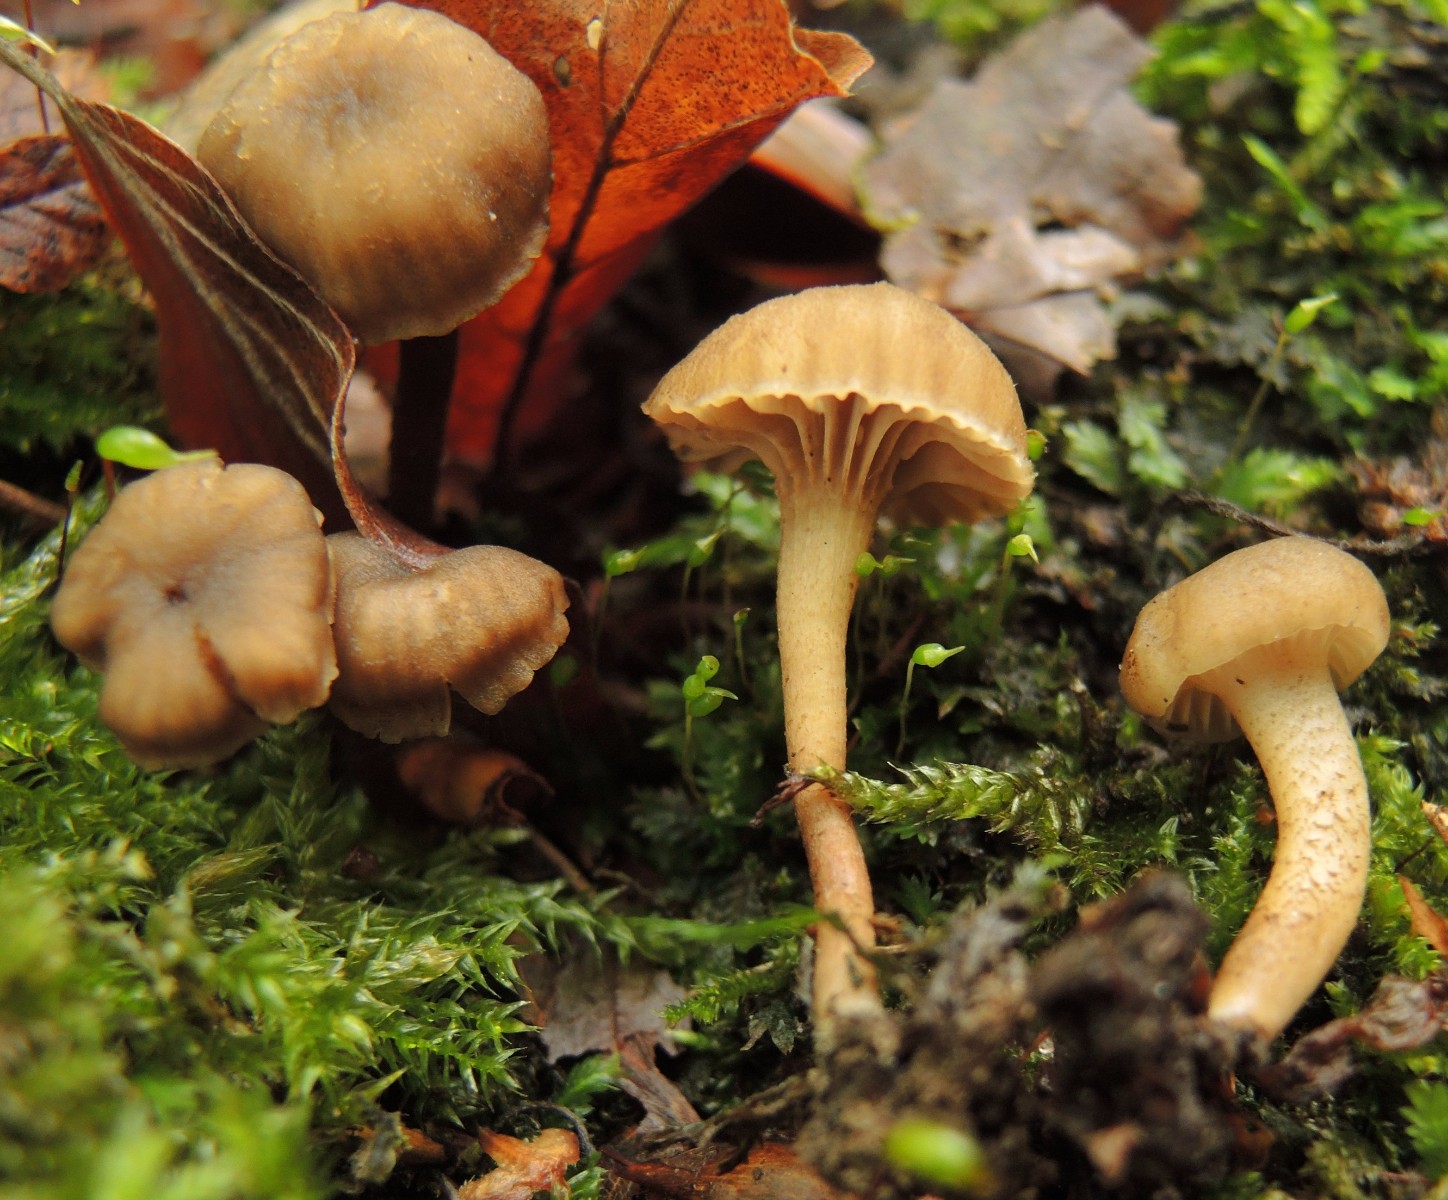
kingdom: Fungi
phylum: Basidiomycota
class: Agaricomycetes
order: Agaricales
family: Clavariaceae
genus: Hodophilus
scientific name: Hodophilus variabilipes
